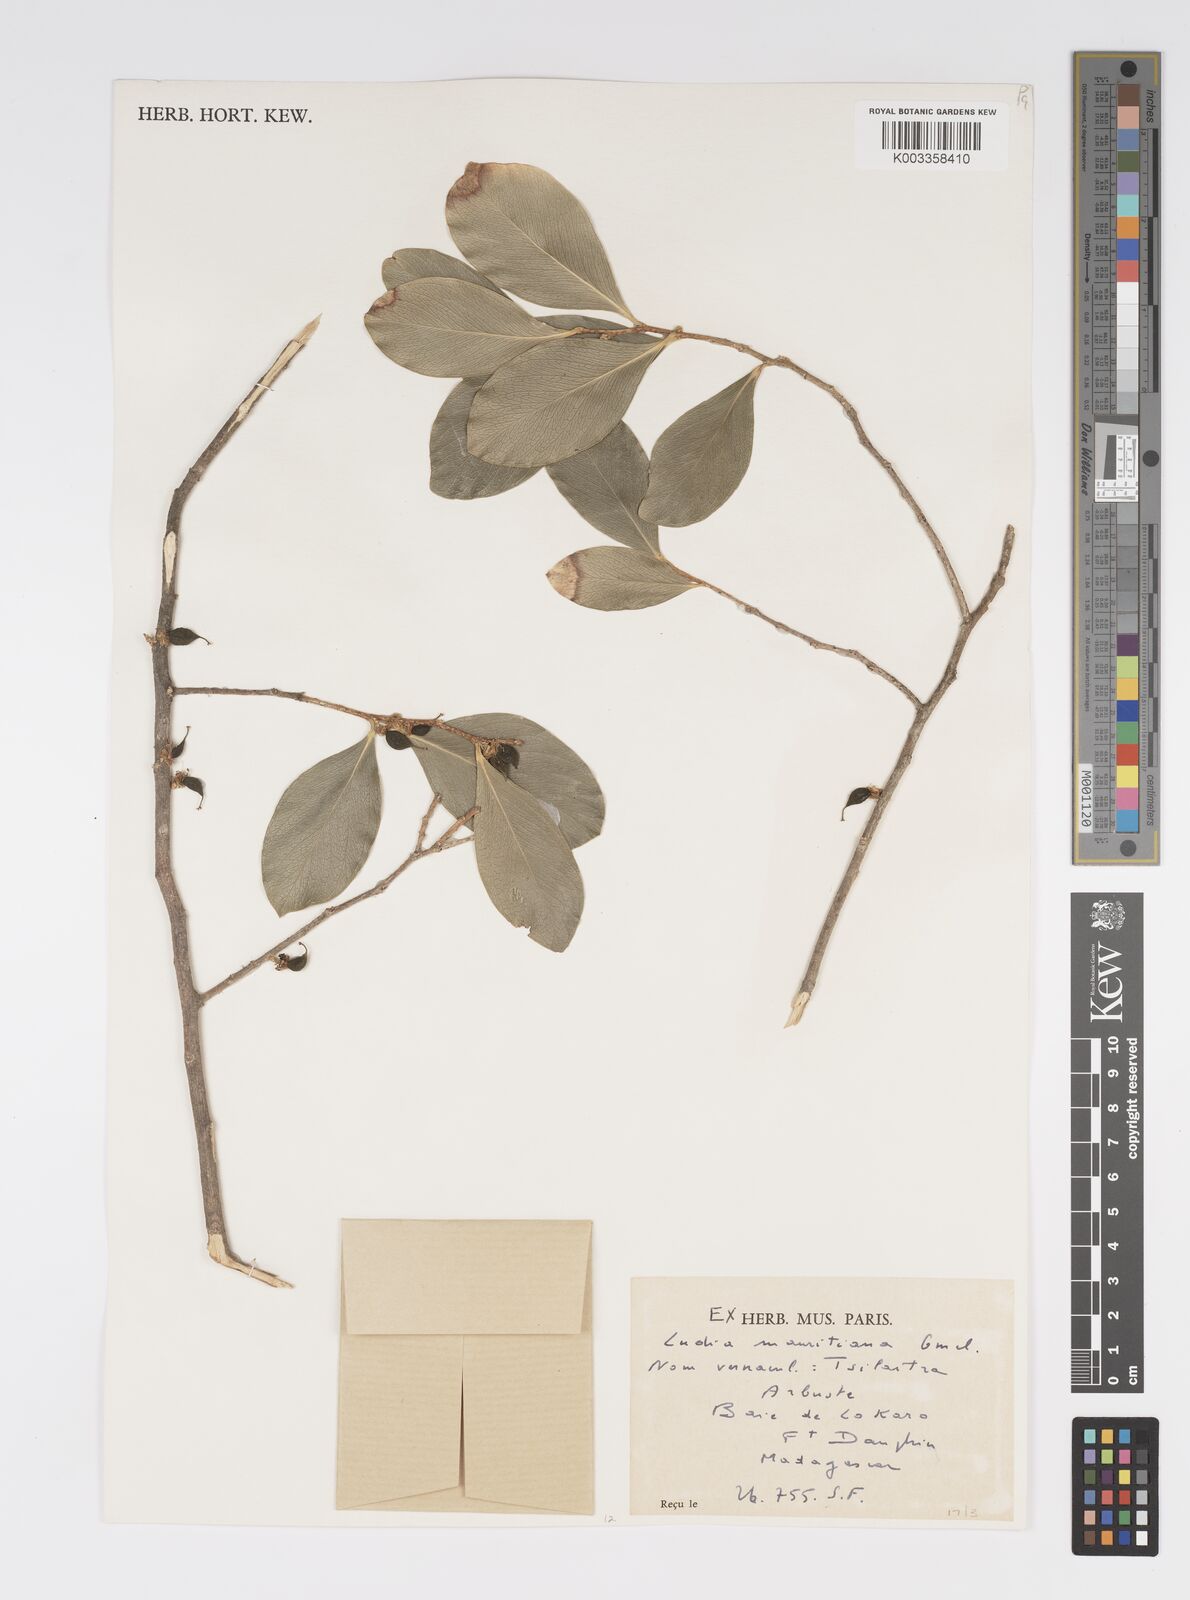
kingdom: Plantae
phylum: Tracheophyta
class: Magnoliopsida
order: Malpighiales
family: Salicaceae
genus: Ludia
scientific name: Ludia mauritiana
